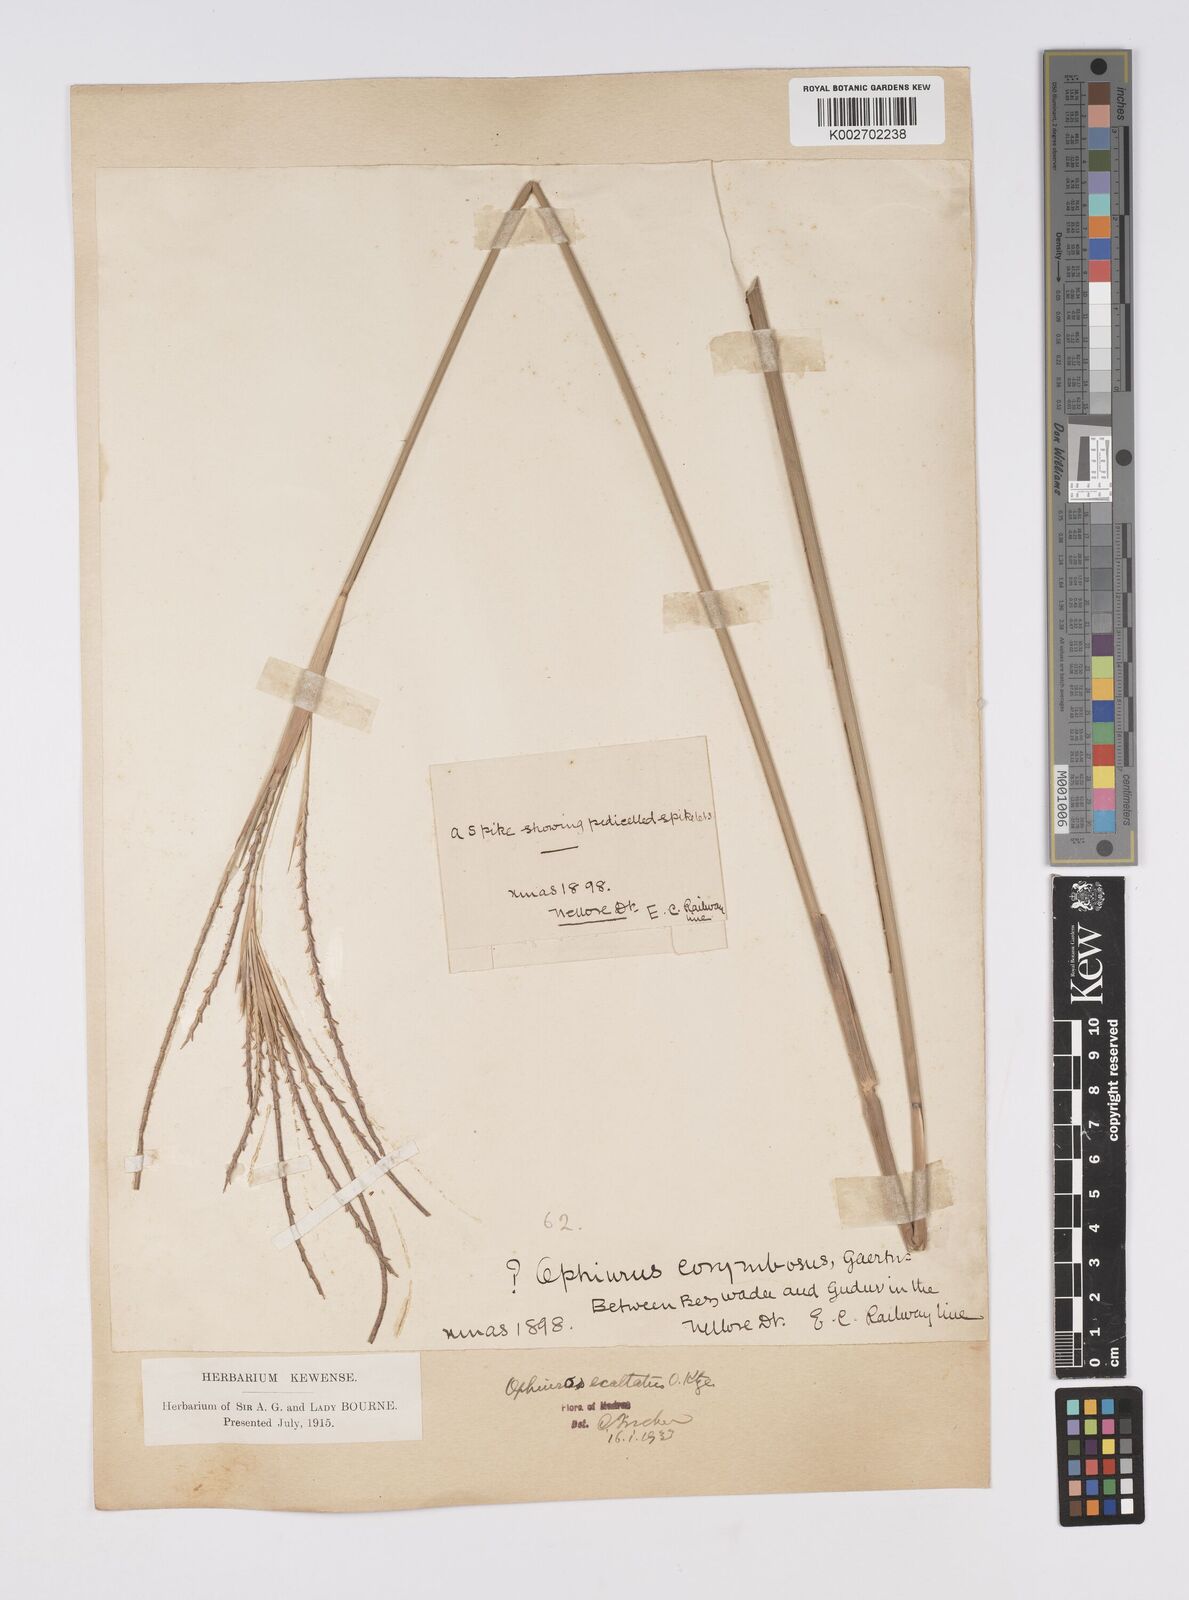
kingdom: Plantae
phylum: Tracheophyta
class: Liliopsida
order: Poales
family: Poaceae
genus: Ophiuros
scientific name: Ophiuros exaltatus
